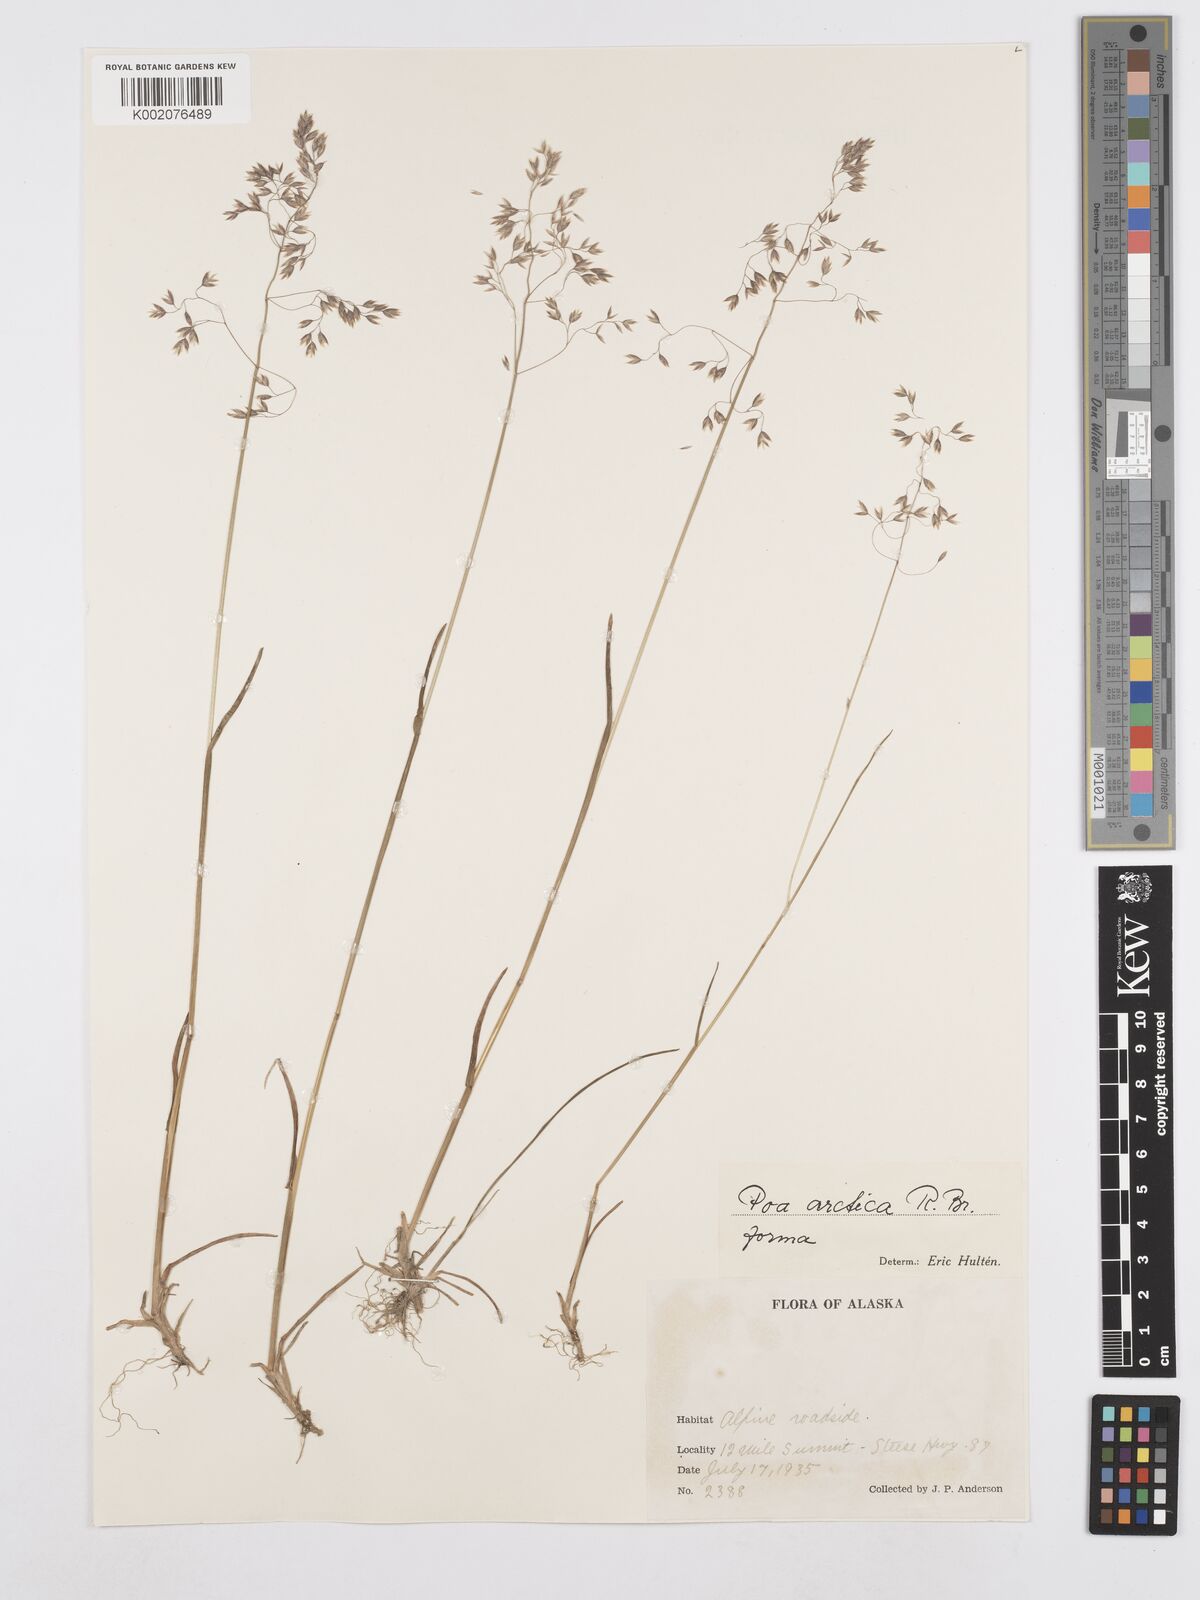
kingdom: Plantae
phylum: Tracheophyta
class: Liliopsida
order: Poales
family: Poaceae
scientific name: Poaceae
